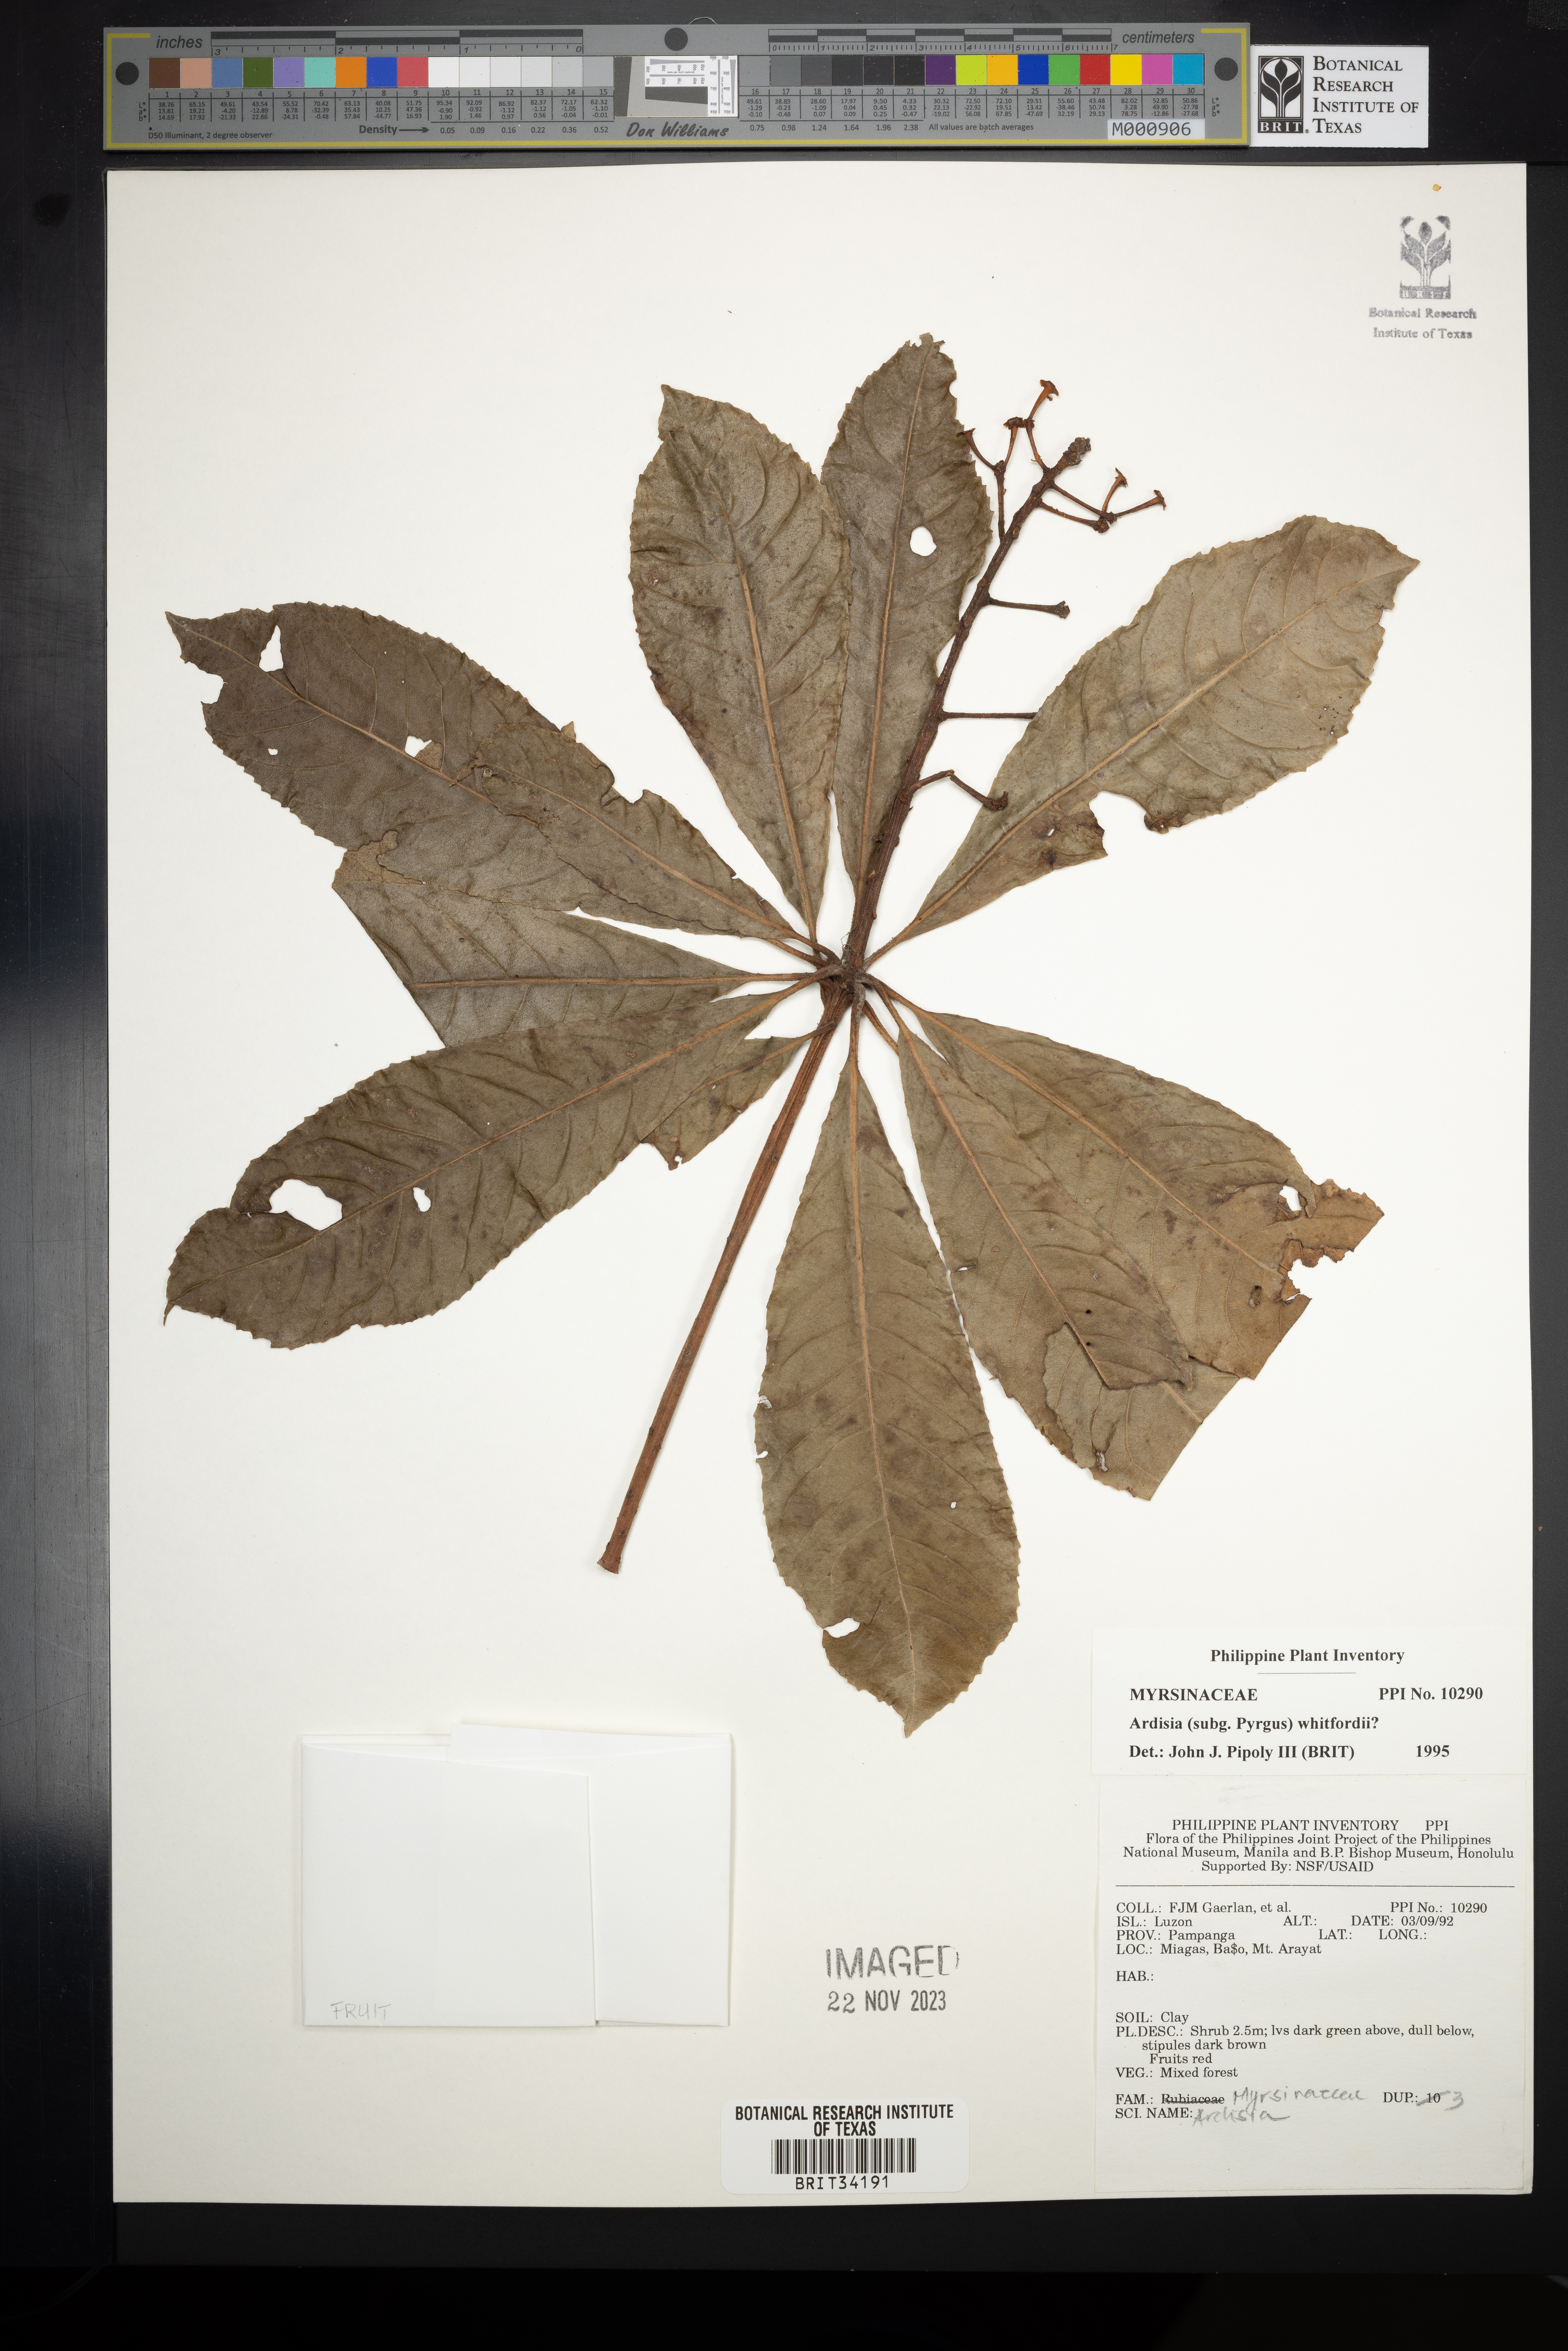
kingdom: Plantae
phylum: Tracheophyta
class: Magnoliopsida
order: Ericales
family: Primulaceae
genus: Ardisia
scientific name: Ardisia serrata
